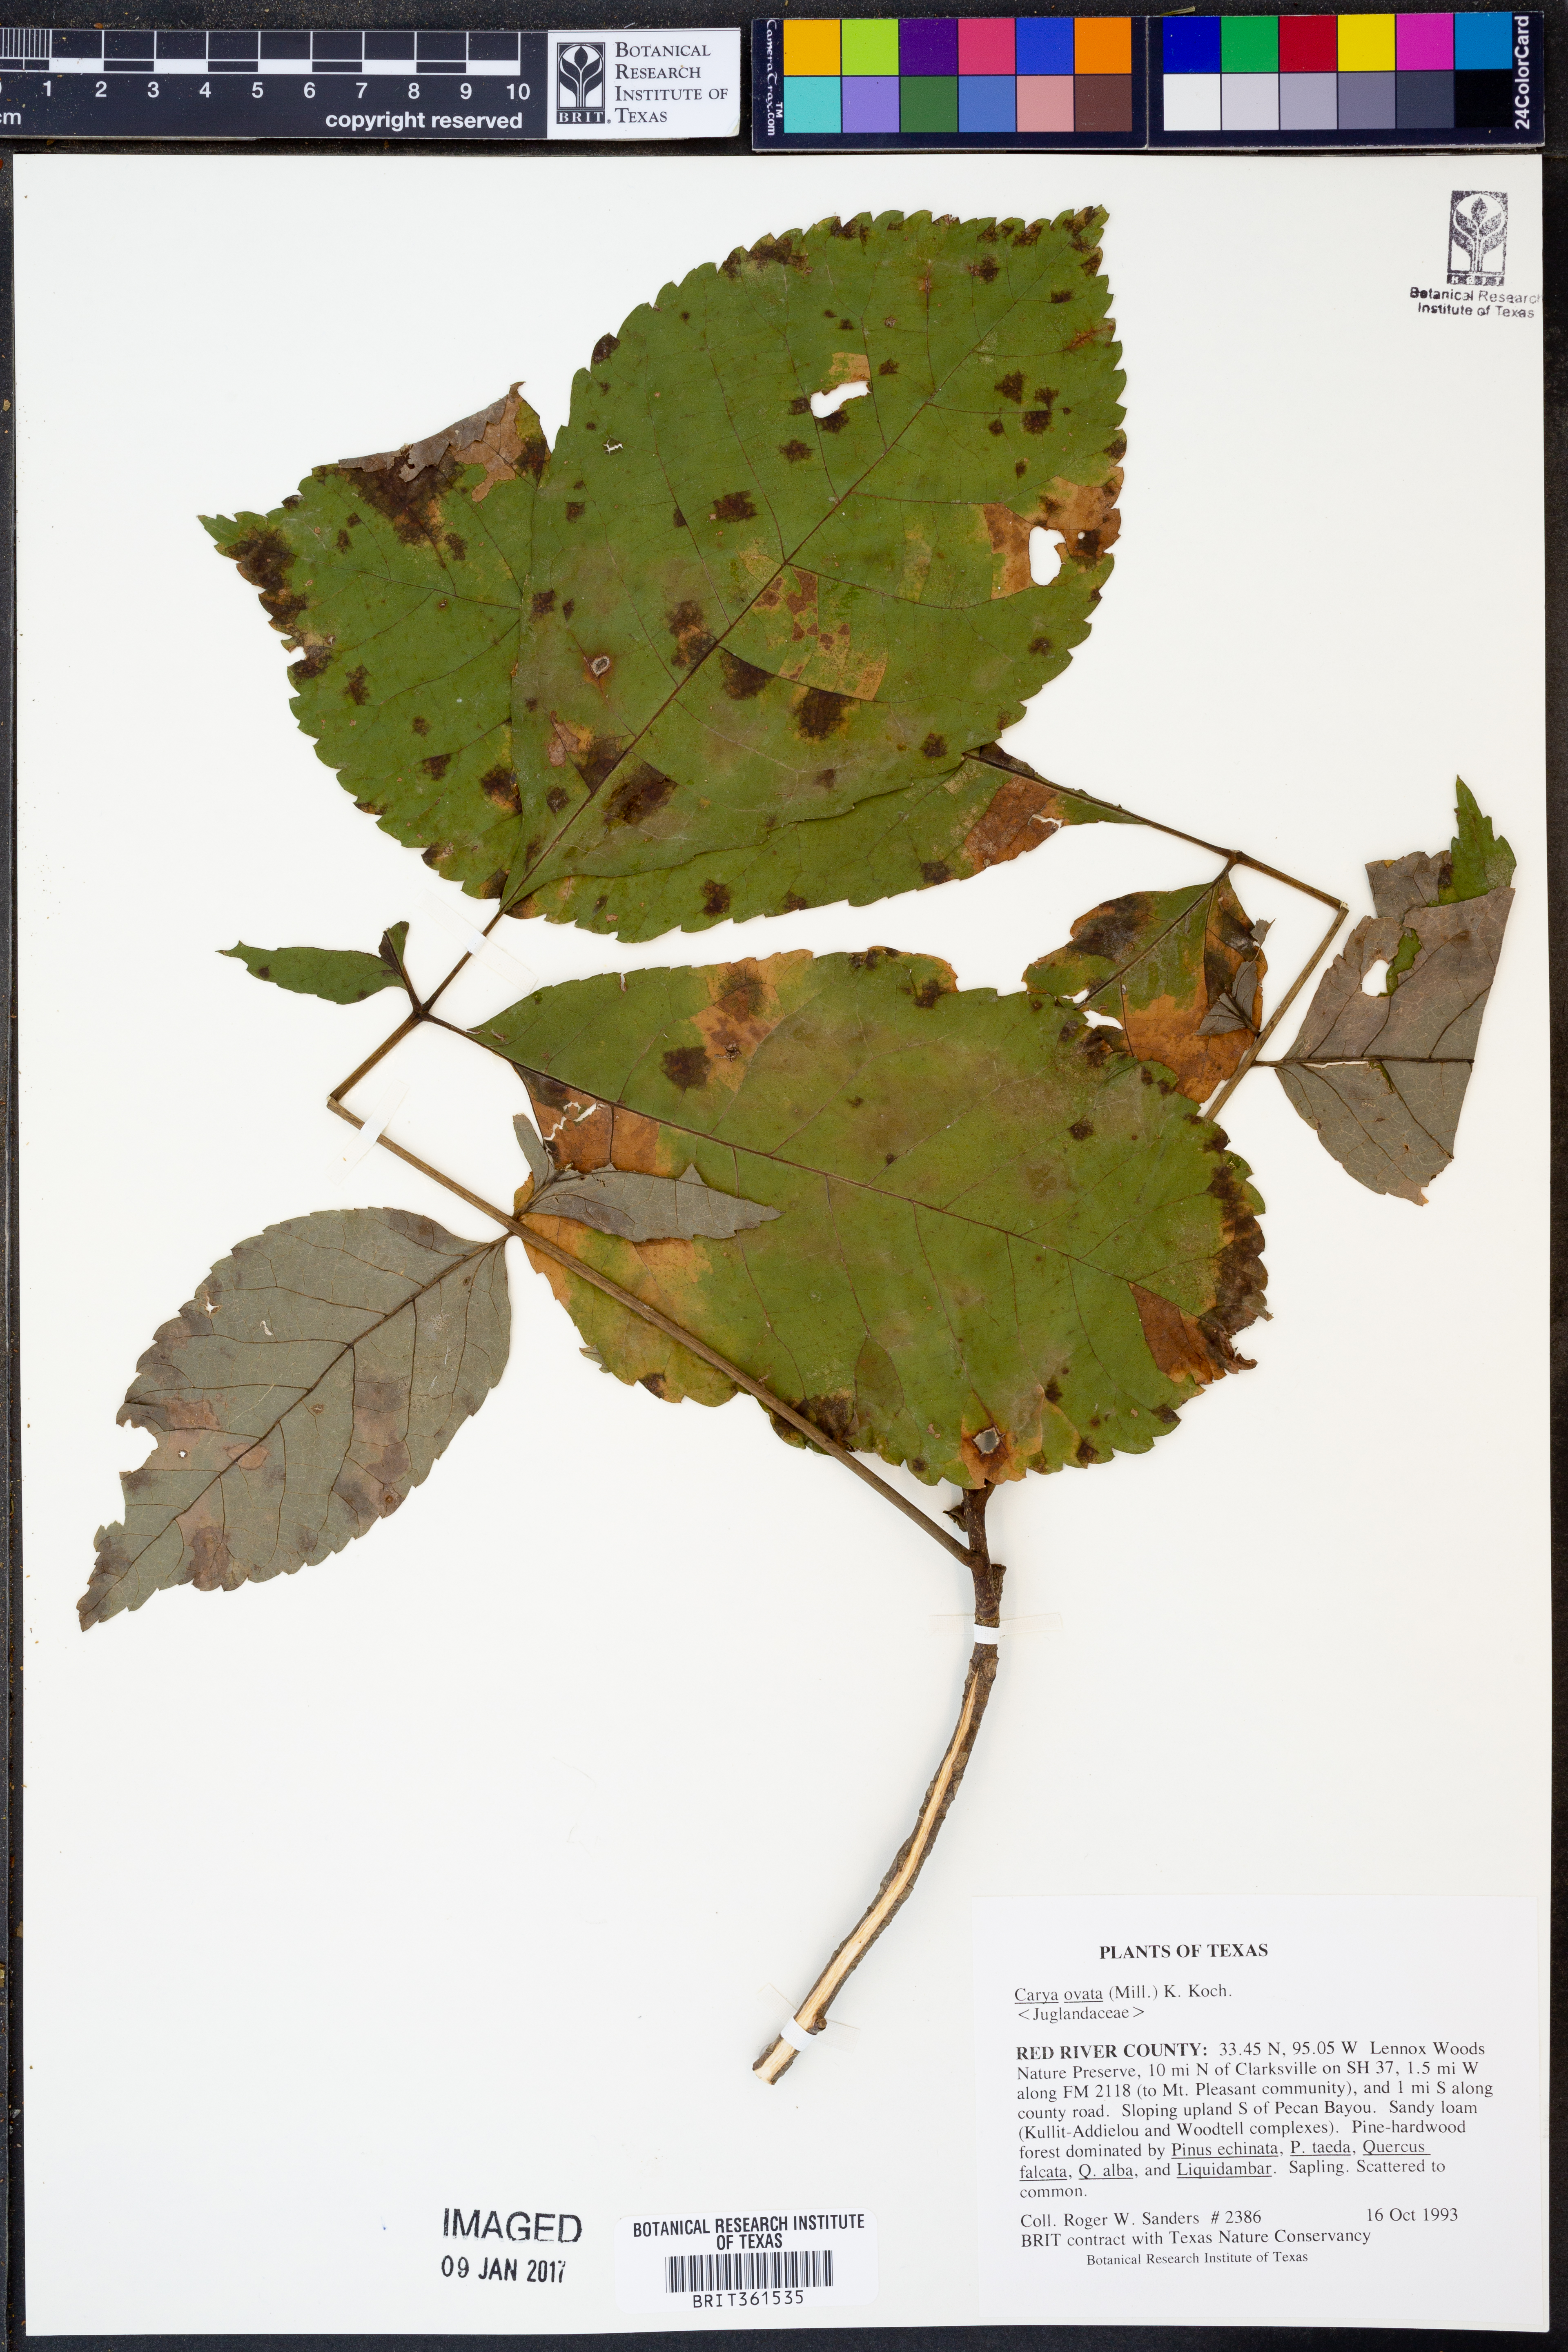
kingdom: Plantae
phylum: Tracheophyta
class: Magnoliopsida
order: Fagales
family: Juglandaceae
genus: Carya
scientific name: Carya ovata
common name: Shagbark hickory
